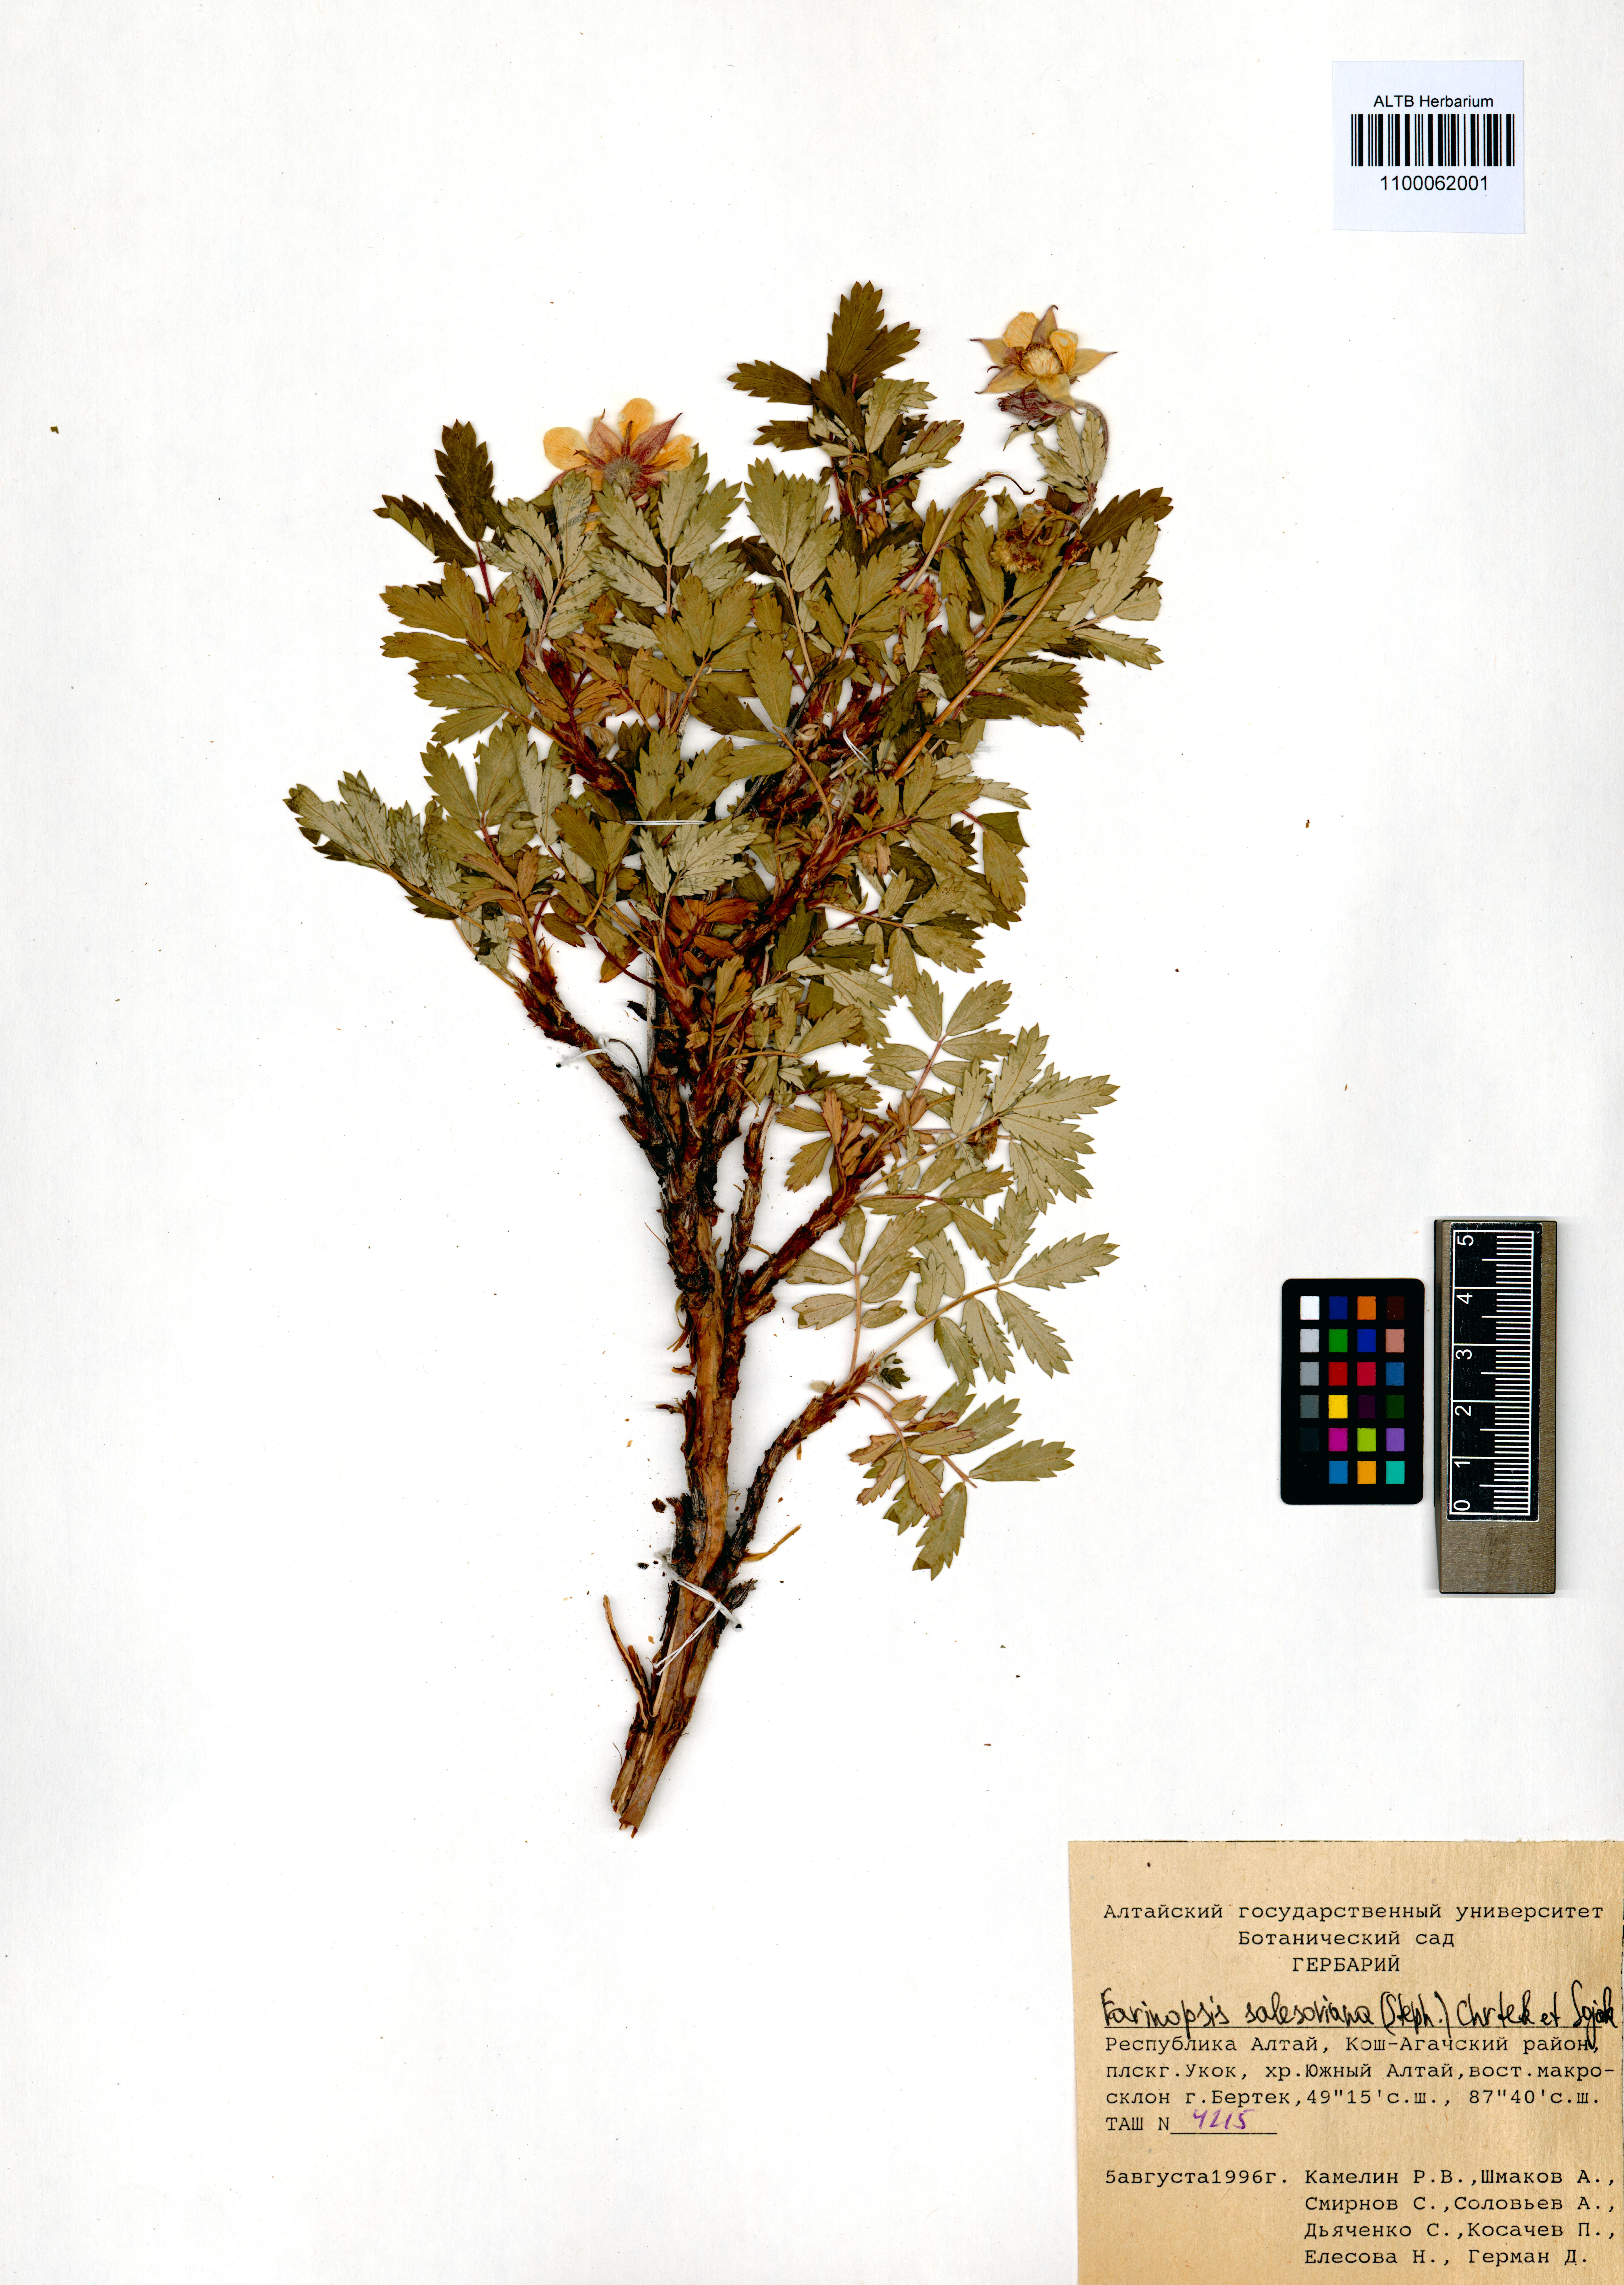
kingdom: Plantae
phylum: Tracheophyta
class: Magnoliopsida
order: Rosales
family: Rosaceae
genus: Farinopsis
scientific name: Farinopsis salesoviana
